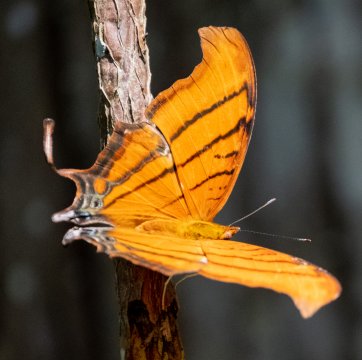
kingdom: Animalia
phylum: Arthropoda
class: Insecta
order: Lepidoptera
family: Nymphalidae
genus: Marpesia
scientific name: Marpesia petreus
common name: Ruddy Daggerwing
